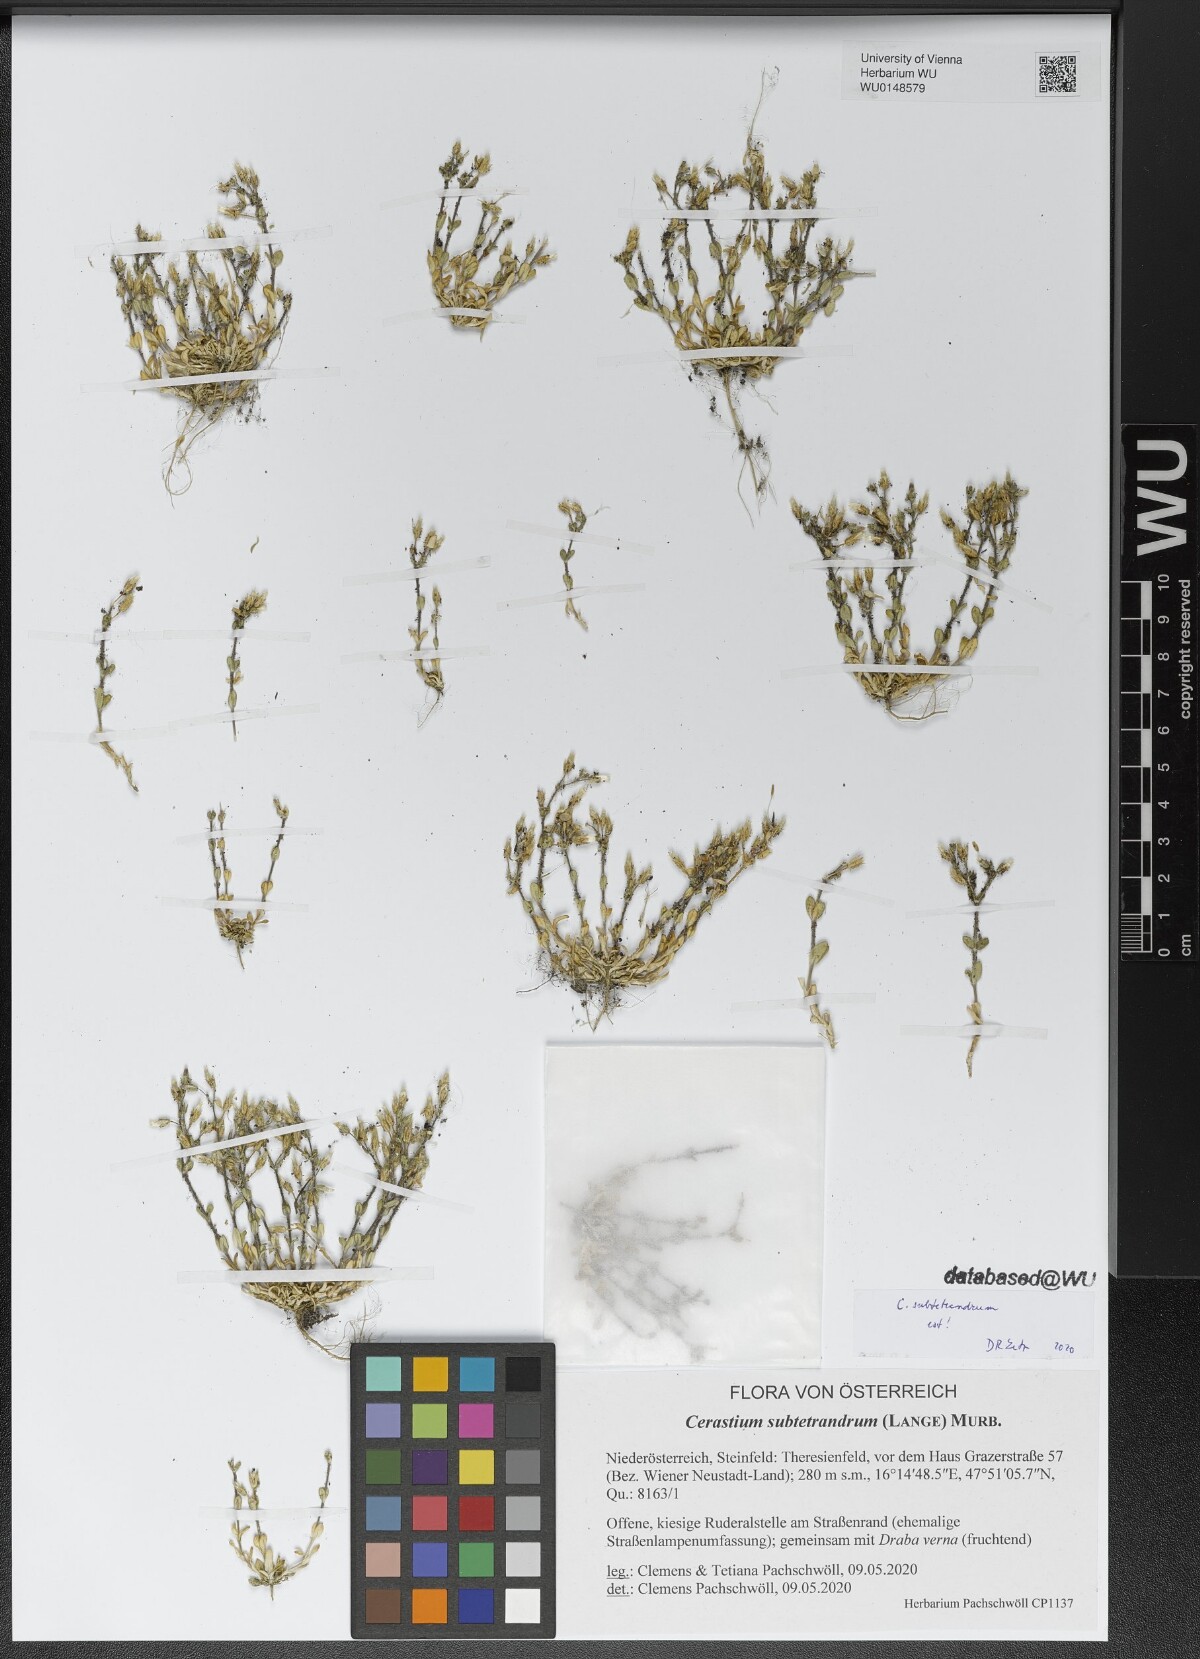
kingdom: Plantae
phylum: Tracheophyta
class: Magnoliopsida
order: Caryophyllales
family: Caryophyllaceae
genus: Cerastium
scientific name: Cerastium subtetrandrum
